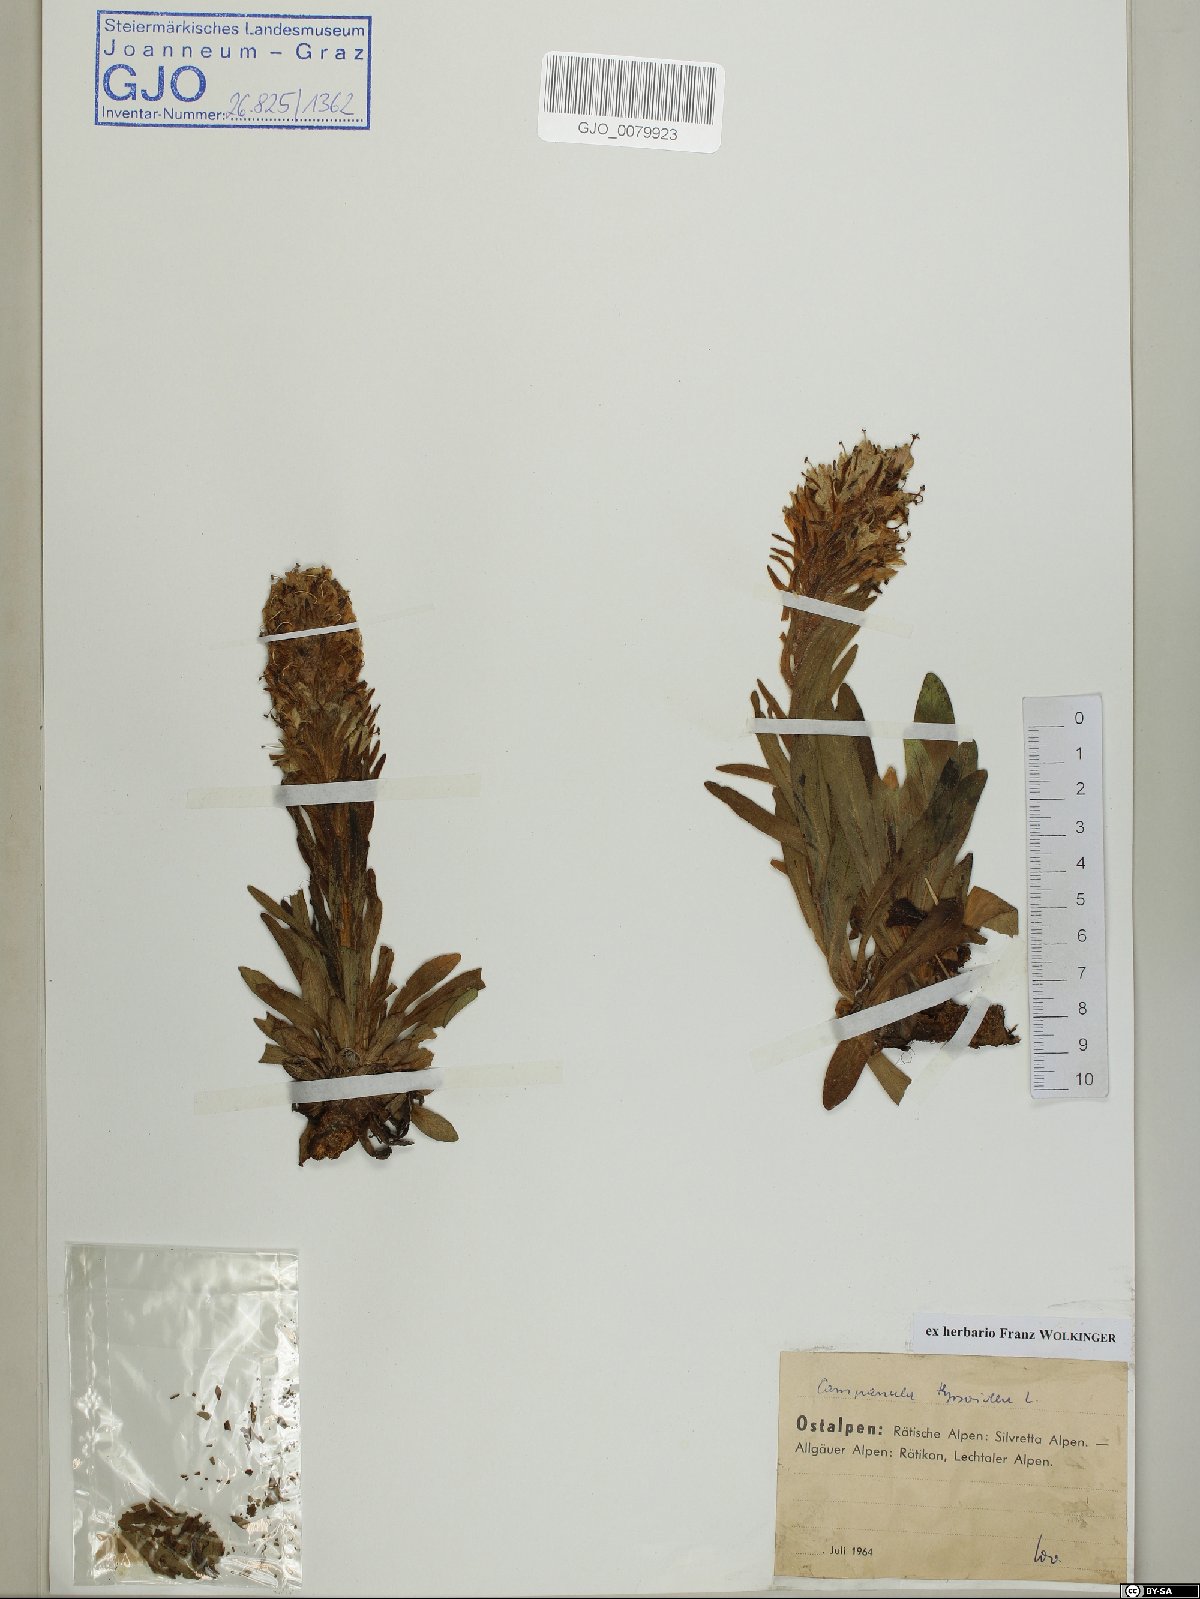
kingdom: Plantae
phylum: Tracheophyta
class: Magnoliopsida
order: Asterales
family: Campanulaceae
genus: Campanula
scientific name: Campanula thyrsoides
